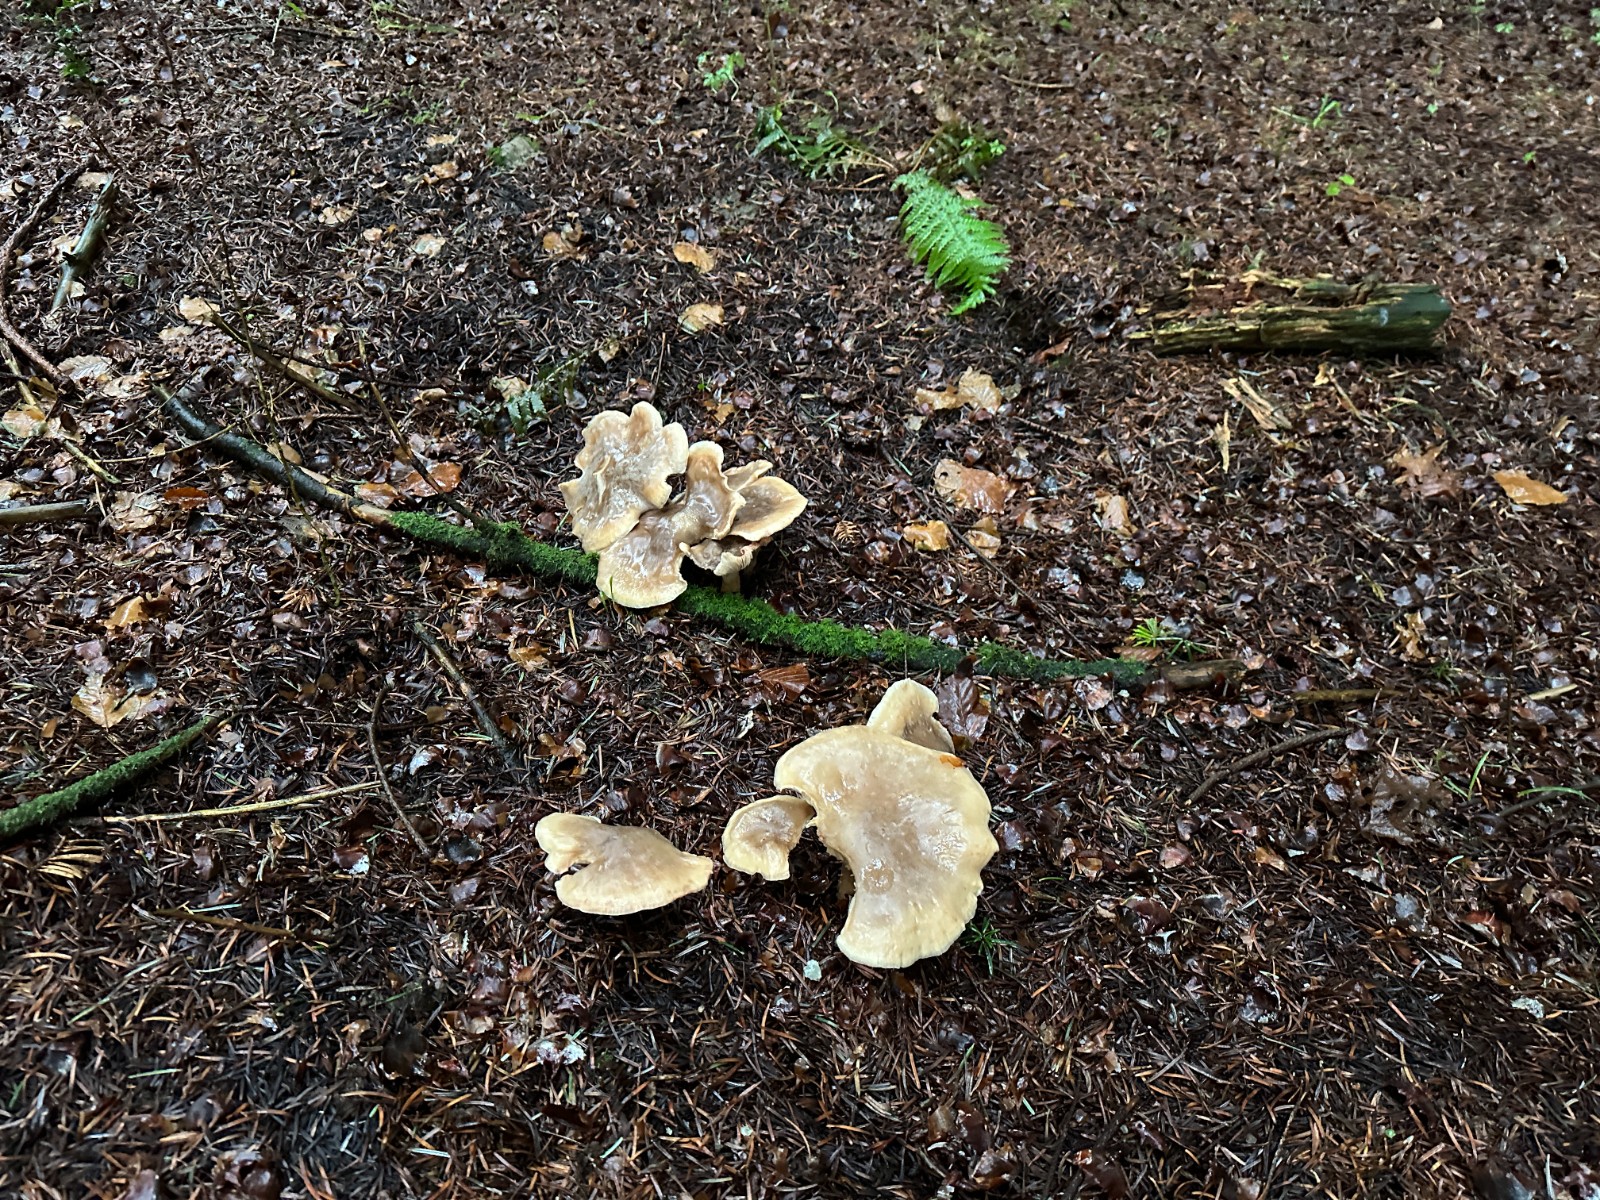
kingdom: Fungi
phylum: Basidiomycota
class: Agaricomycetes
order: Agaricales
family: Tricholomataceae
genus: Clitocybe
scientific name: Clitocybe nebularis
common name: tåge-tragthat
